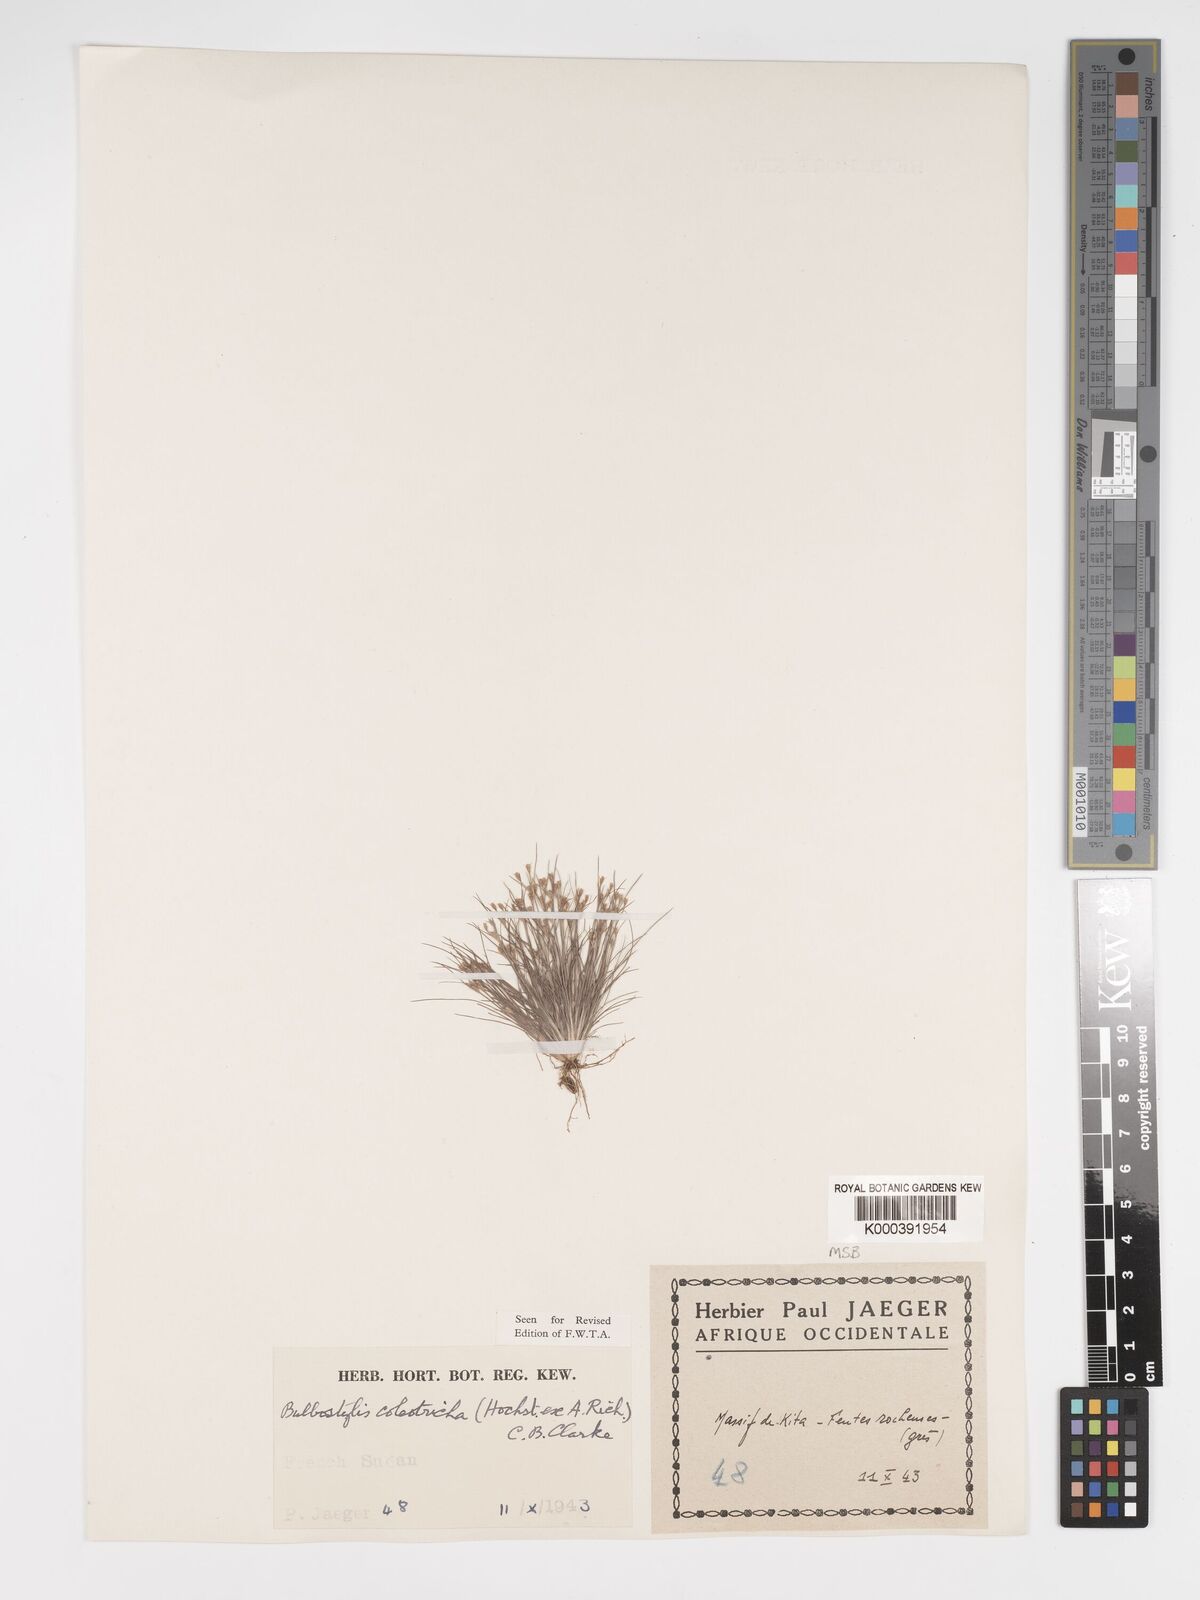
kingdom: Plantae
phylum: Tracheophyta
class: Liliopsida
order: Poales
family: Cyperaceae
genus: Bulbostylis
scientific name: Bulbostylis coleotricha
